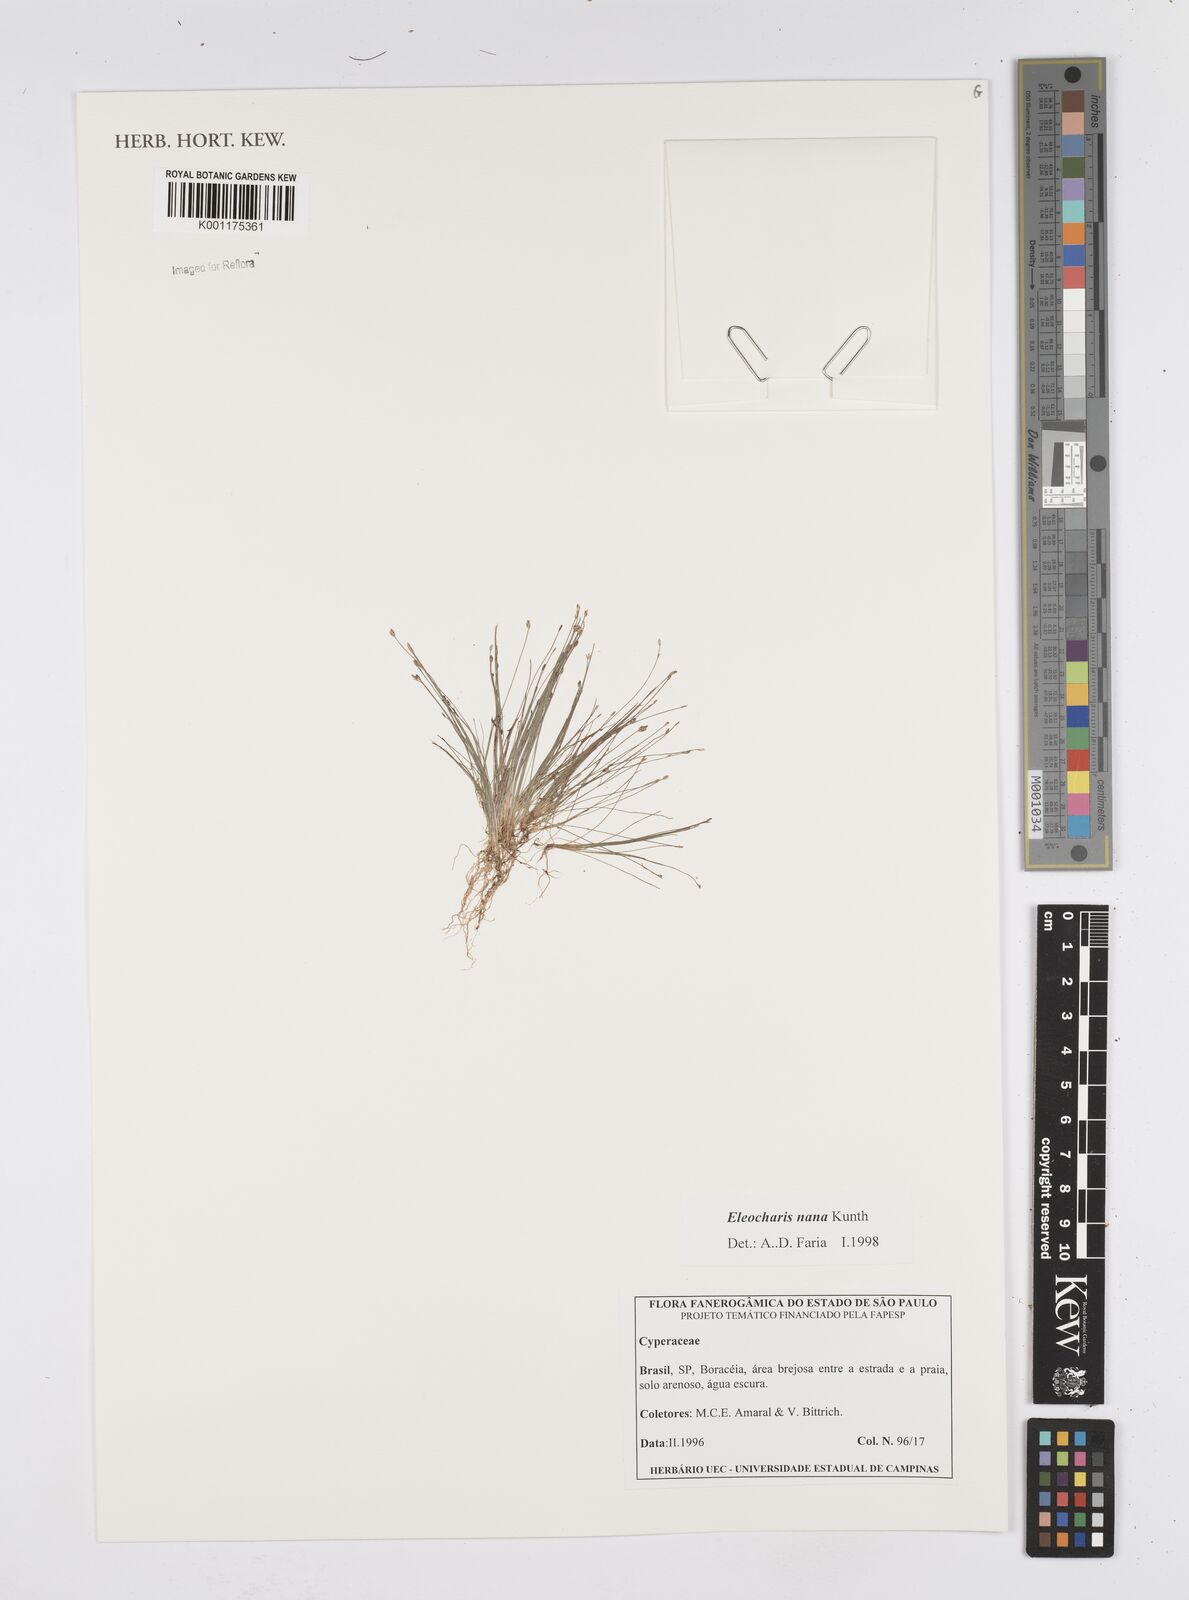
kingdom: Plantae
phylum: Tracheophyta
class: Liliopsida
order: Poales
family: Cyperaceae
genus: Eleocharis
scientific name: Eleocharis nana
